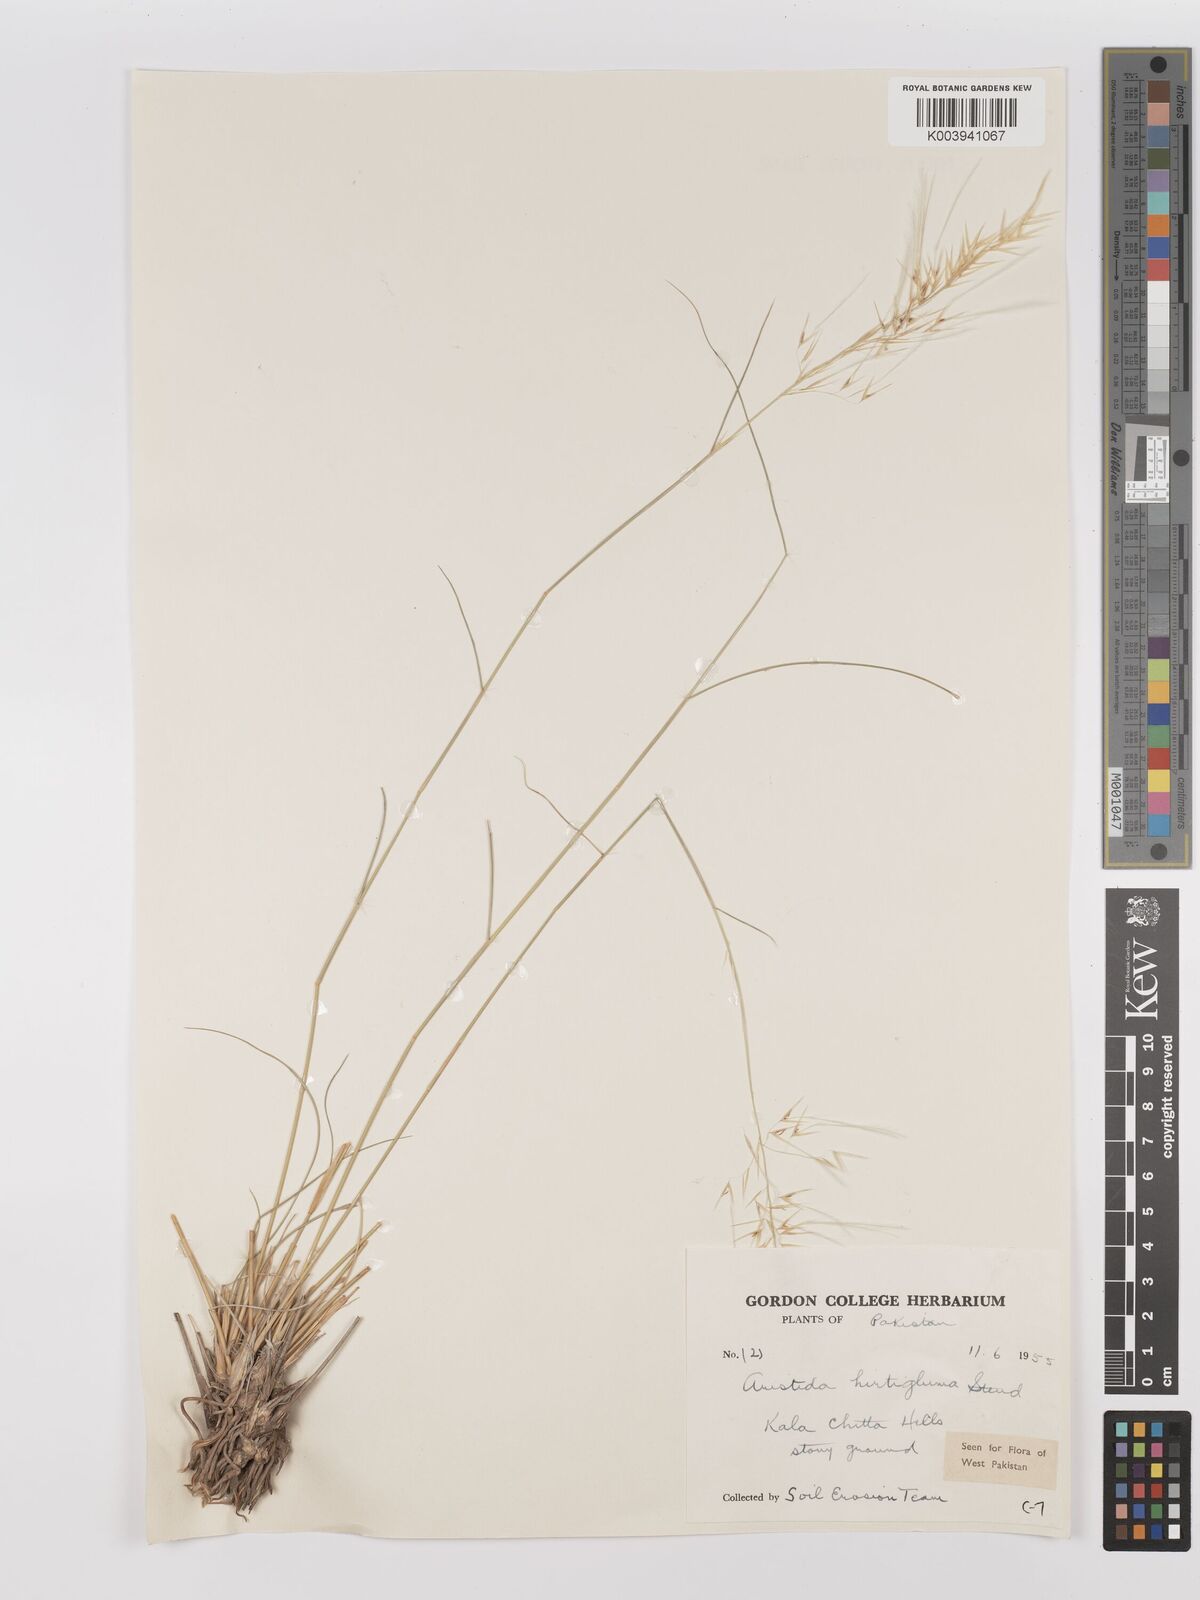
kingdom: Plantae
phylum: Tracheophyta
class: Liliopsida
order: Poales
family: Poaceae
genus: Stipagrostis
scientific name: Stipagrostis hirtigluma
